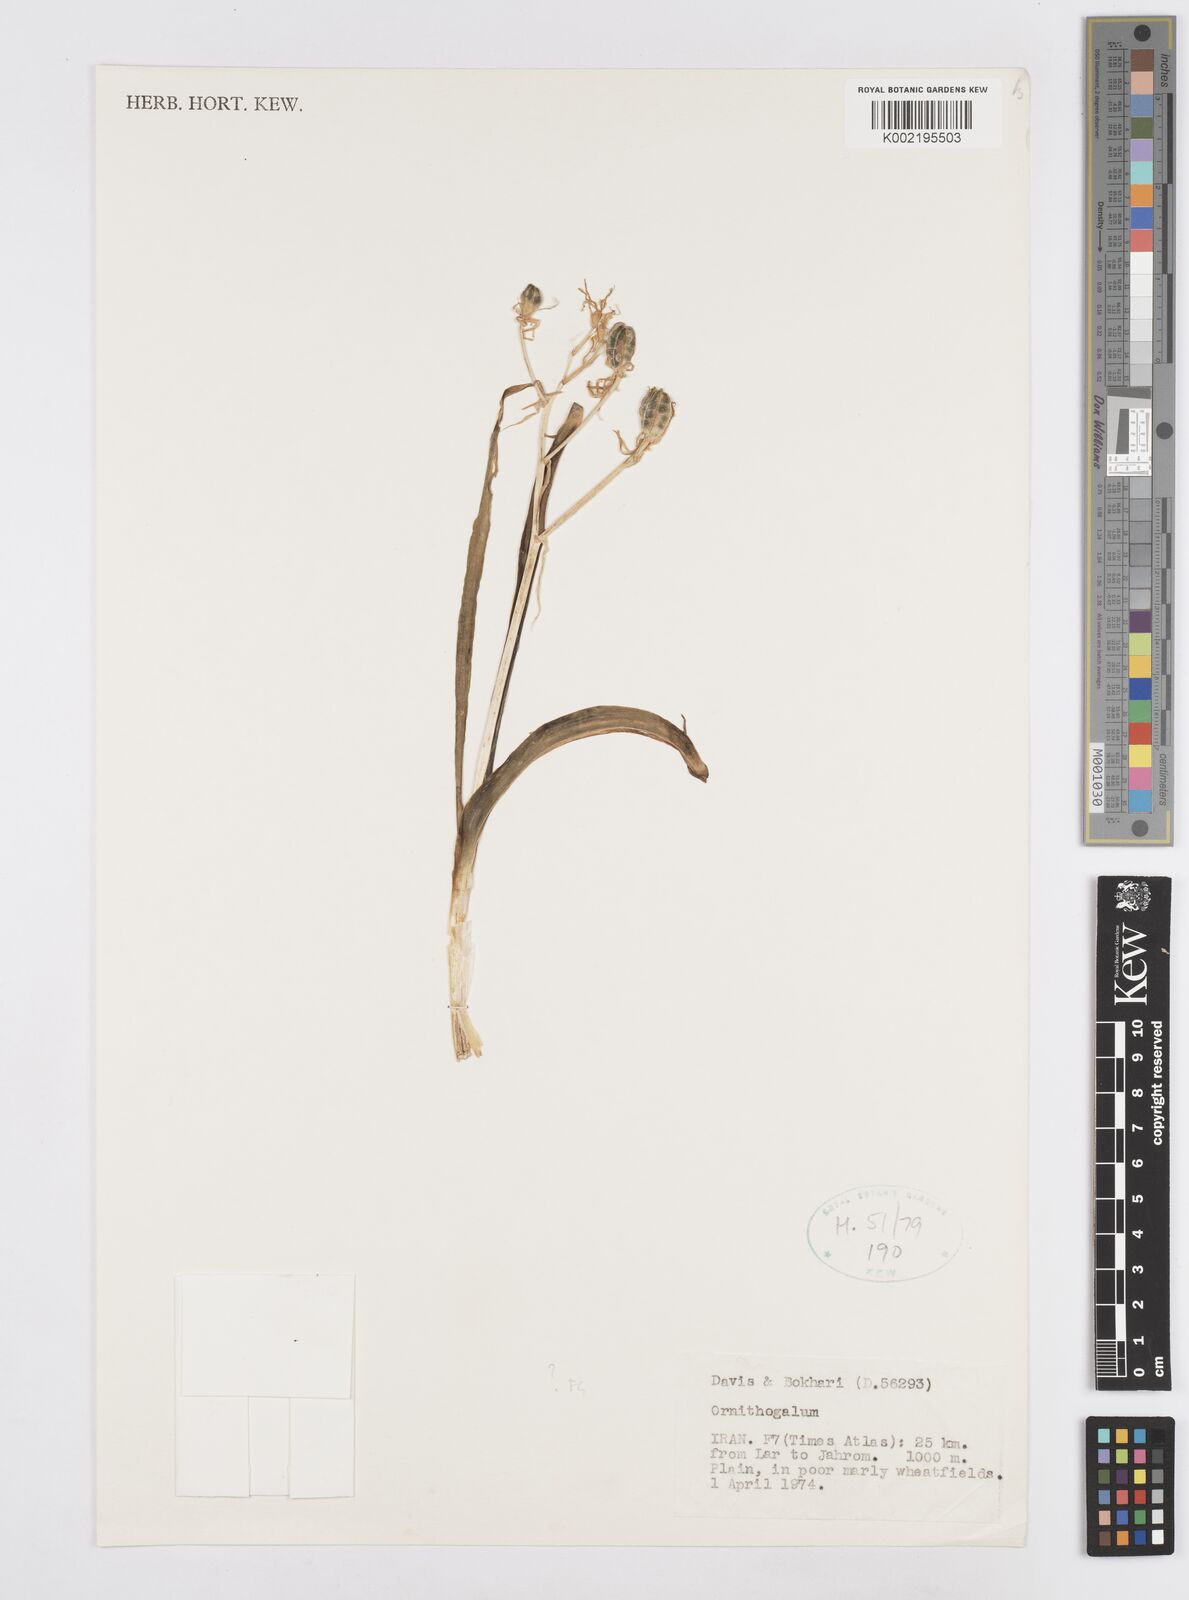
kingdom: Plantae
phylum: Tracheophyta
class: Liliopsida
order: Asparagales
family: Asparagaceae
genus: Ornithogalum
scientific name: Ornithogalum
